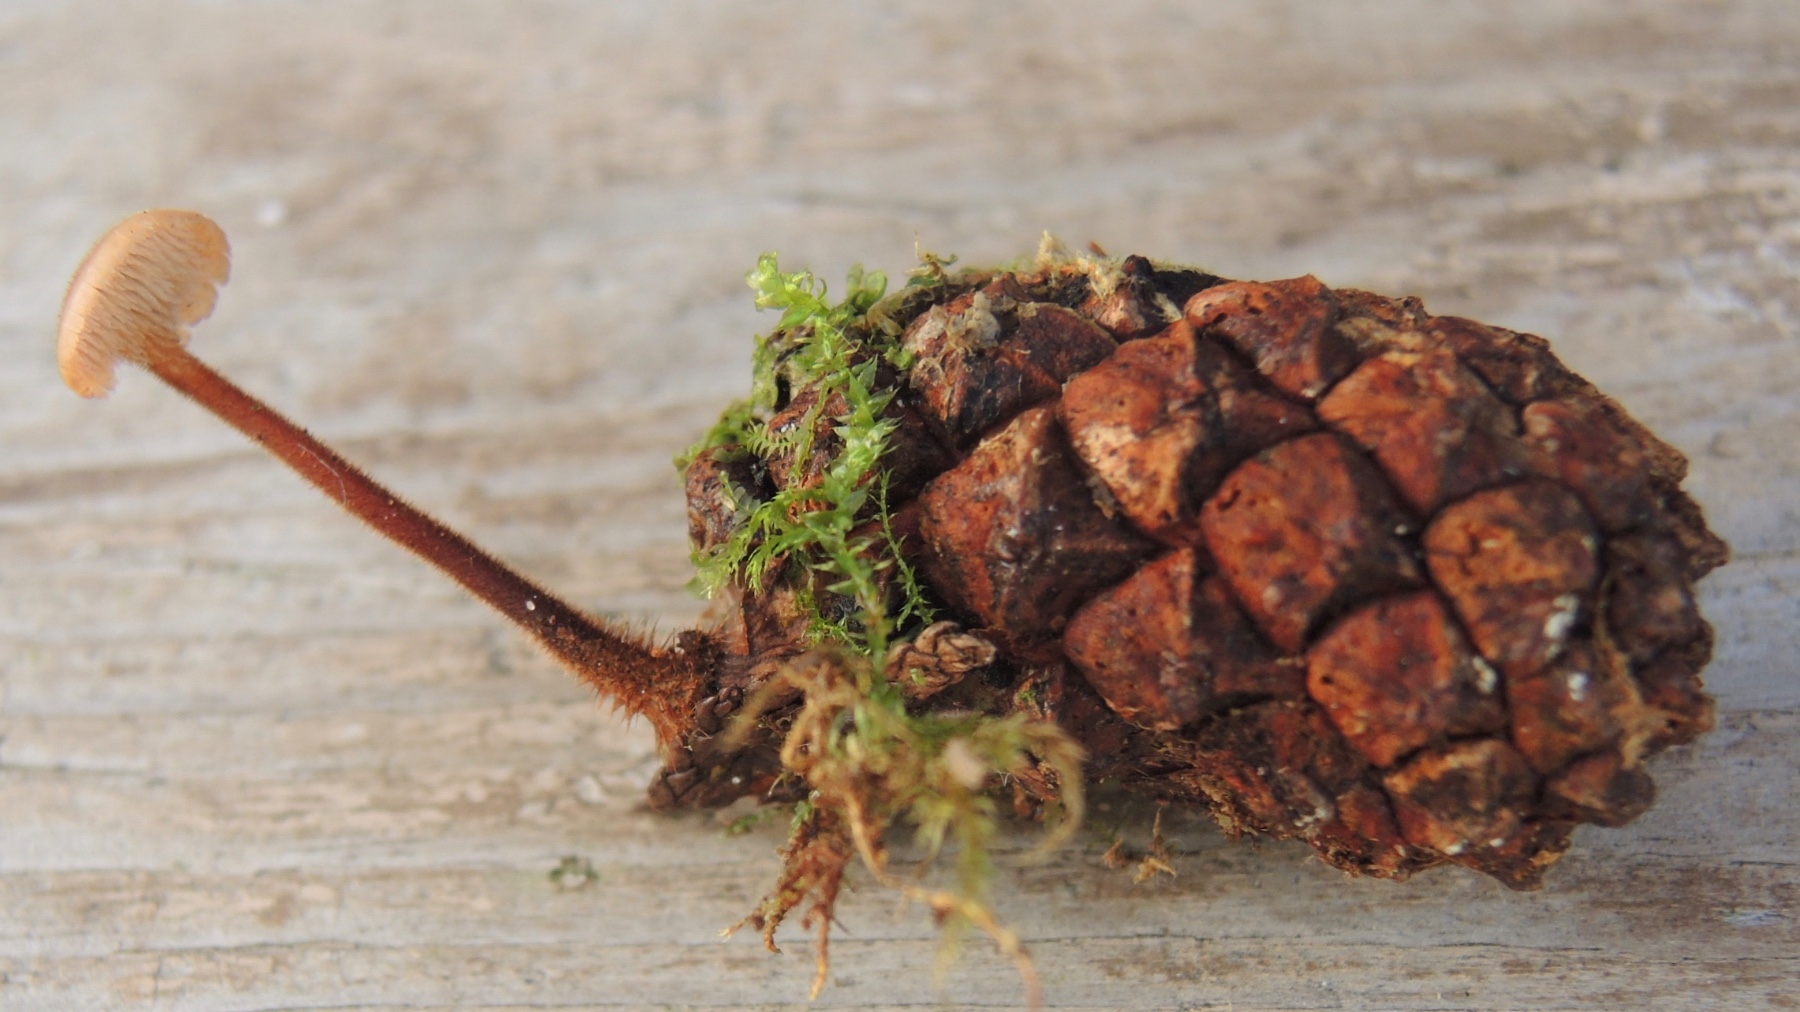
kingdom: Fungi
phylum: Basidiomycota
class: Agaricomycetes
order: Russulales
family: Auriscalpiaceae
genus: Auriscalpium
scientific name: Auriscalpium vulgare
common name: koglepigsvamp
